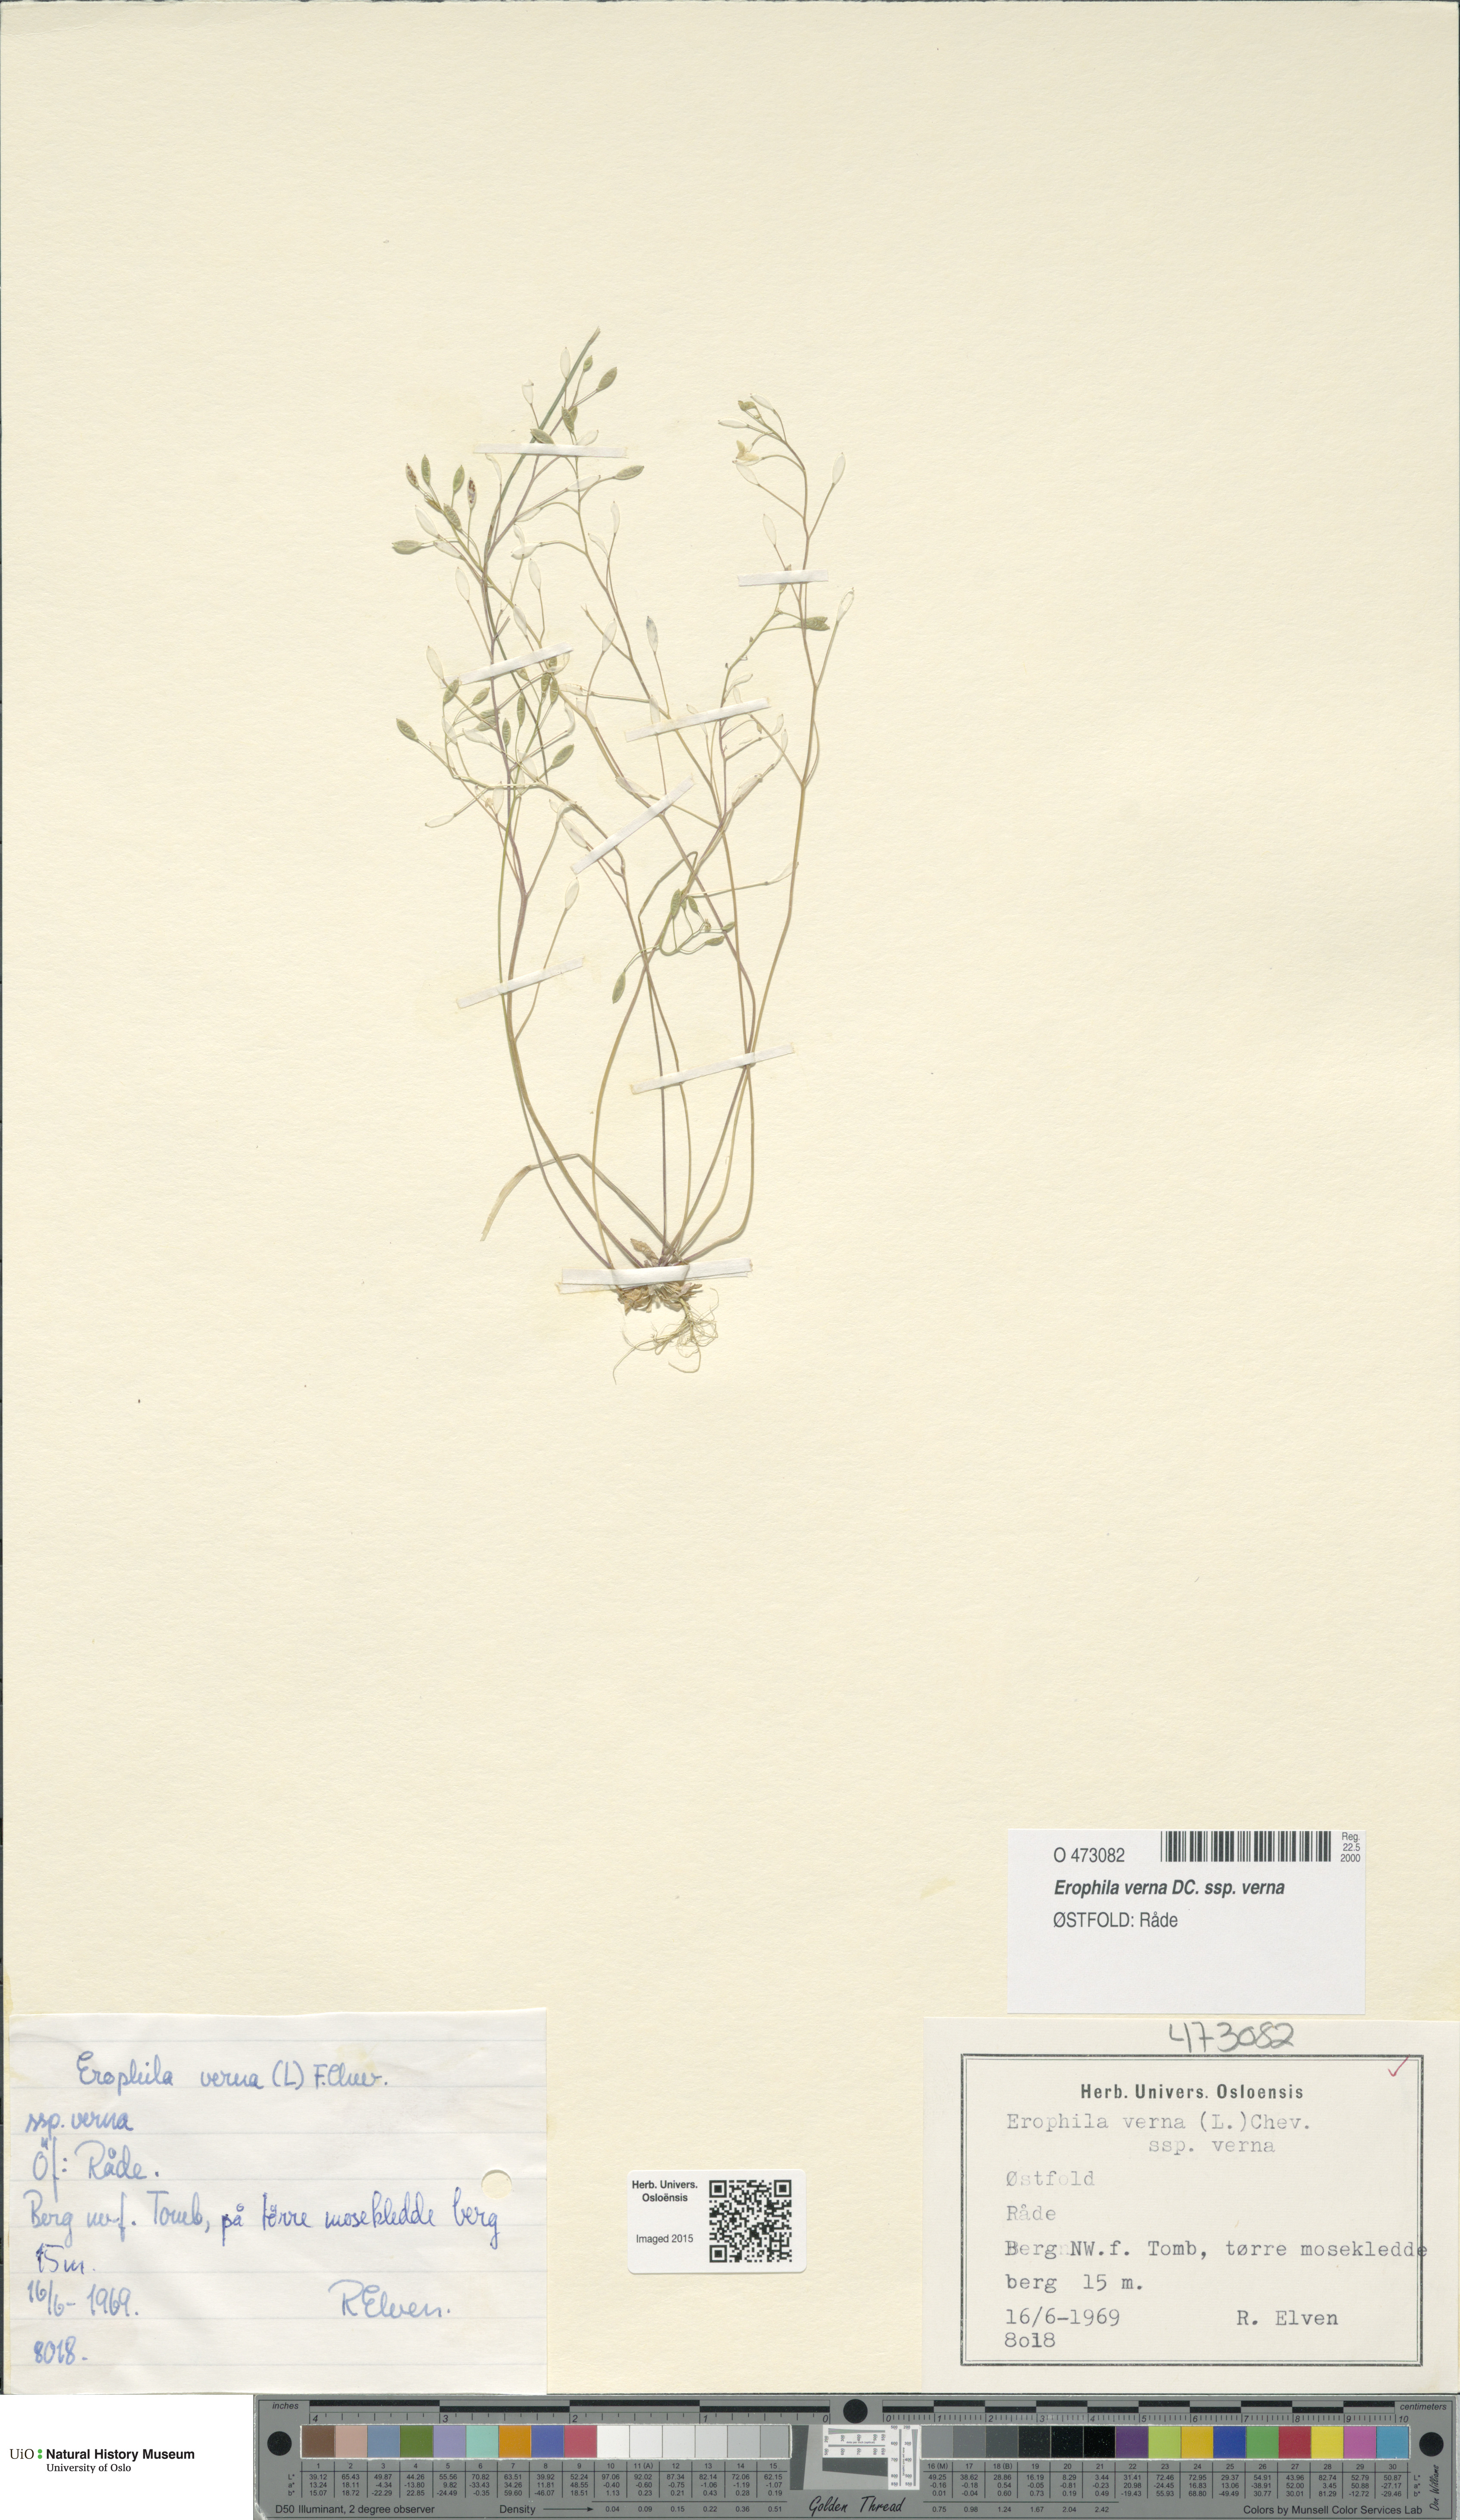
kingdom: Plantae
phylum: Tracheophyta
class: Magnoliopsida
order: Brassicales
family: Brassicaceae
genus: Draba
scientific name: Draba verna
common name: Spring draba
